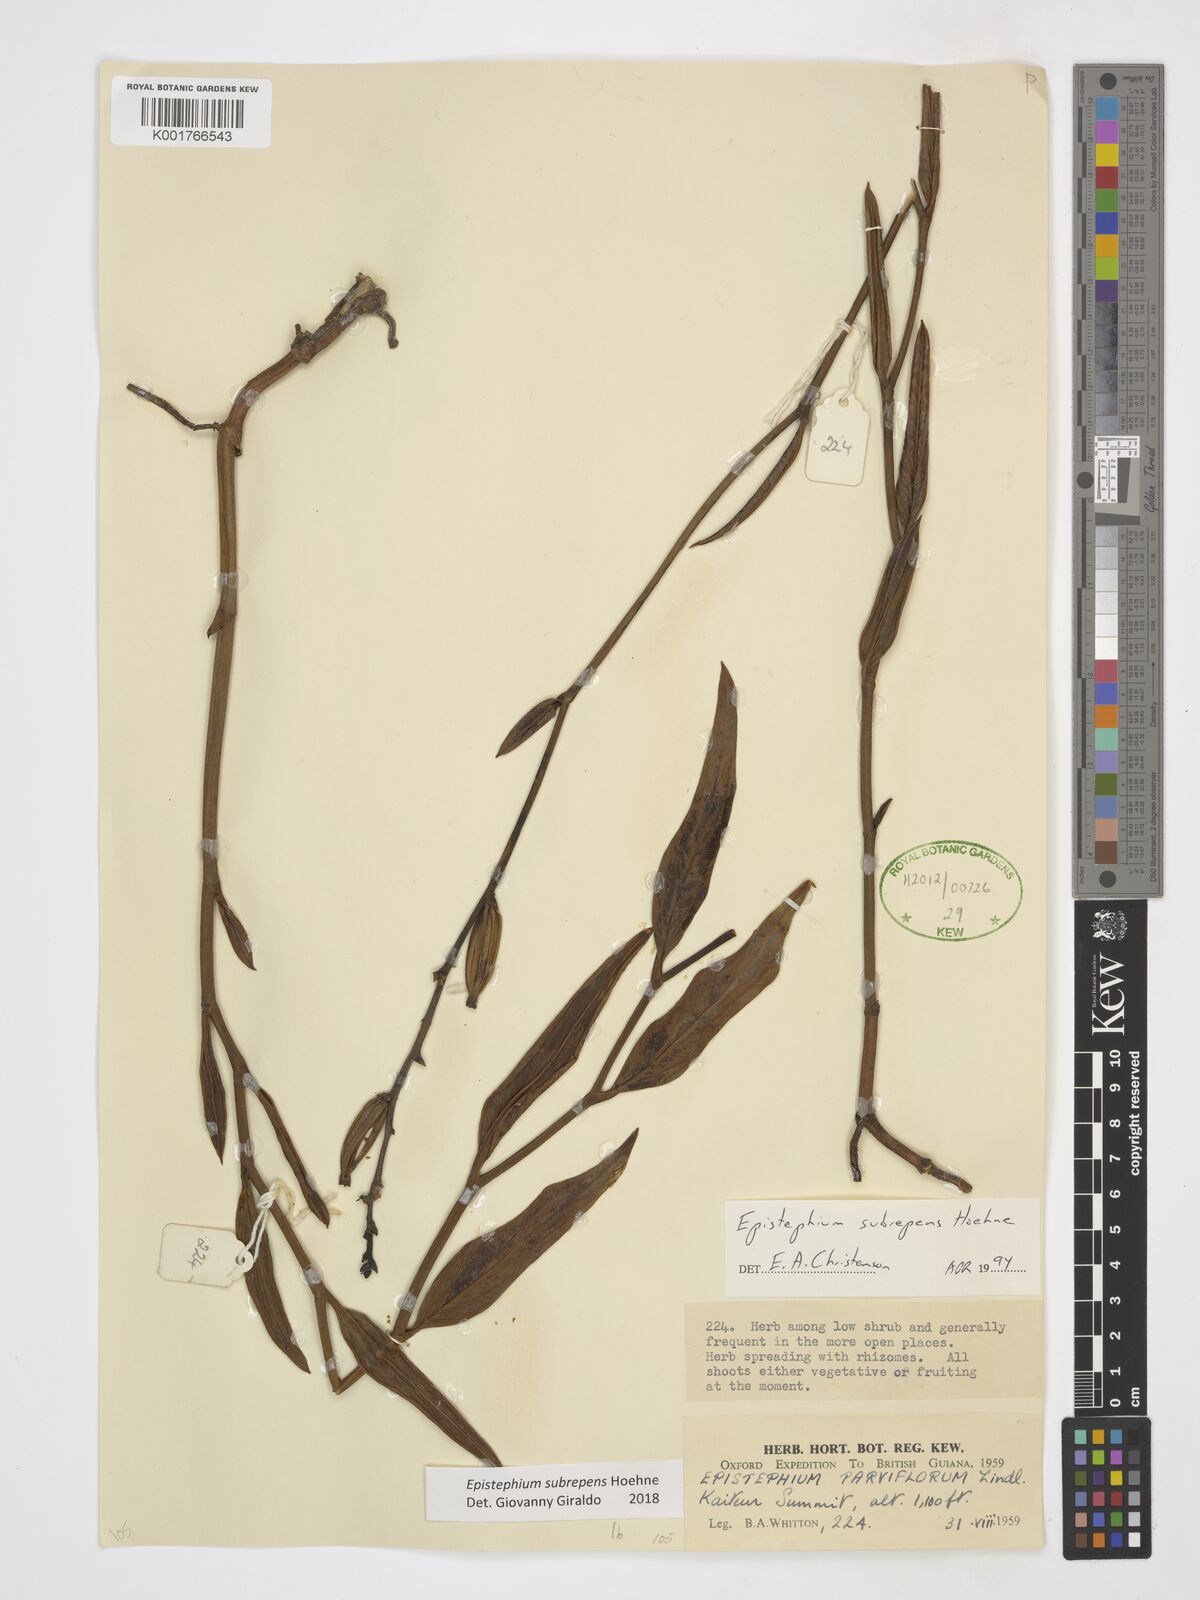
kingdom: Plantae
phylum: Tracheophyta
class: Liliopsida
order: Asparagales
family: Orchidaceae
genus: Epistephium
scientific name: Epistephium subrepens
